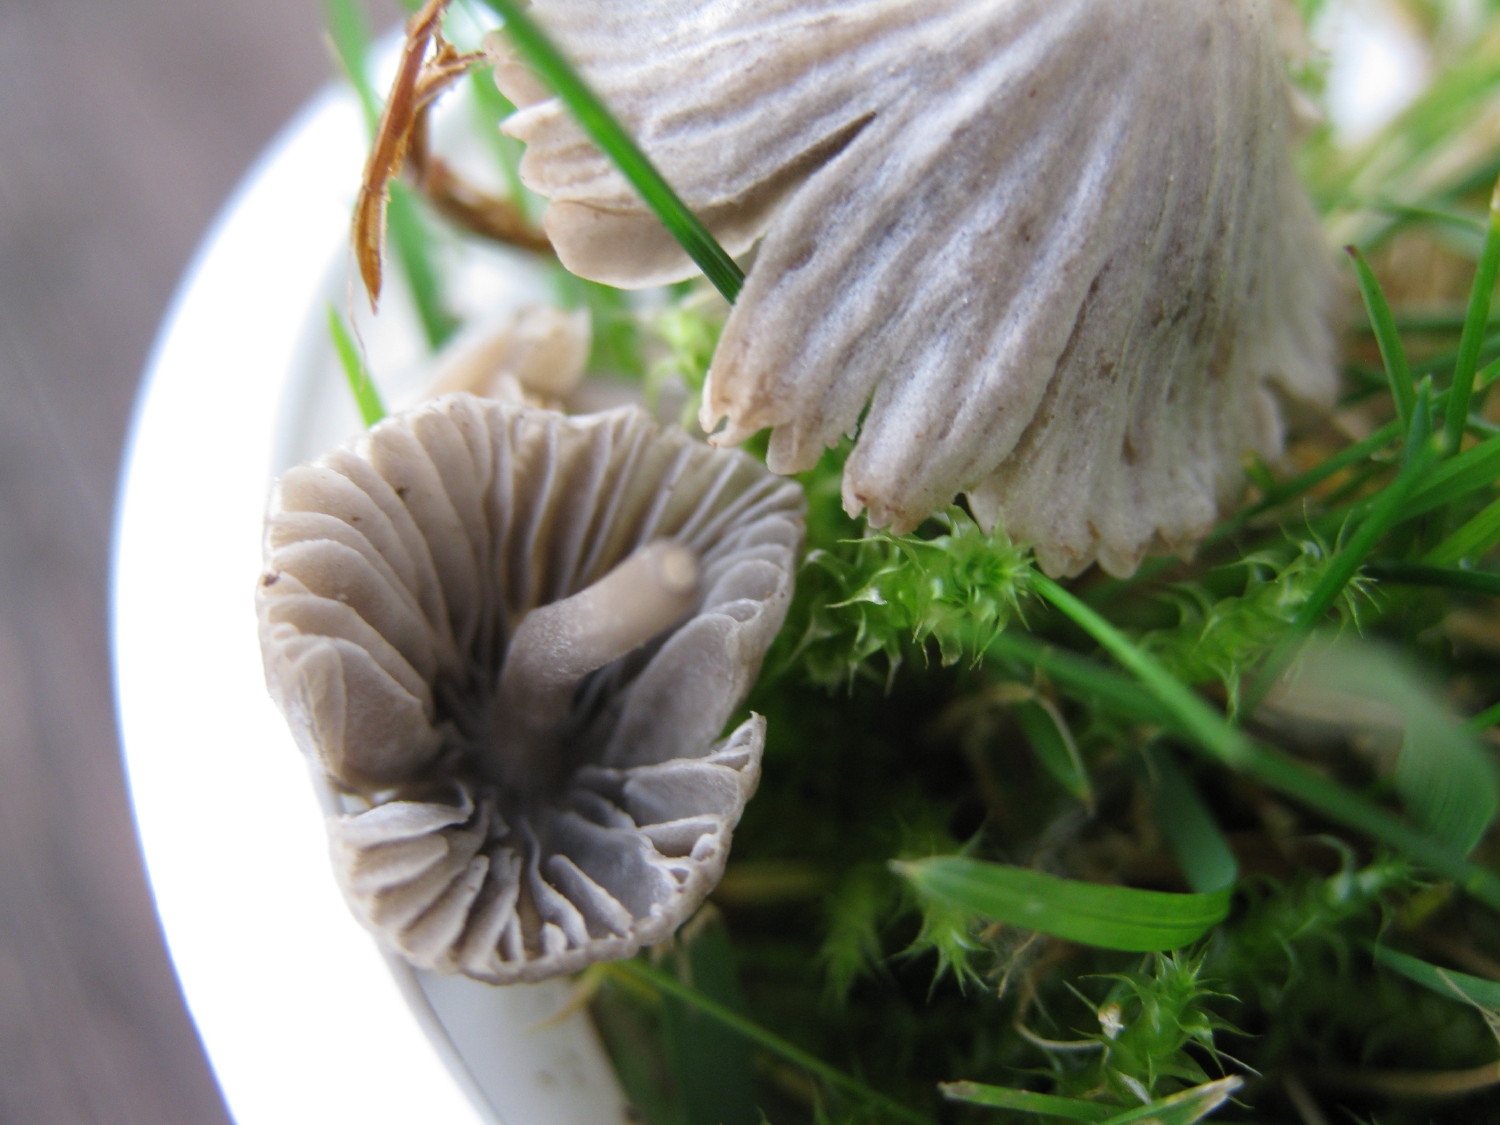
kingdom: Fungi
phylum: Basidiomycota
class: Agaricomycetes
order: Agaricales
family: Mycenaceae
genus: Mycena
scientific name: Mycena aetites
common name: plæne-huesvamp
